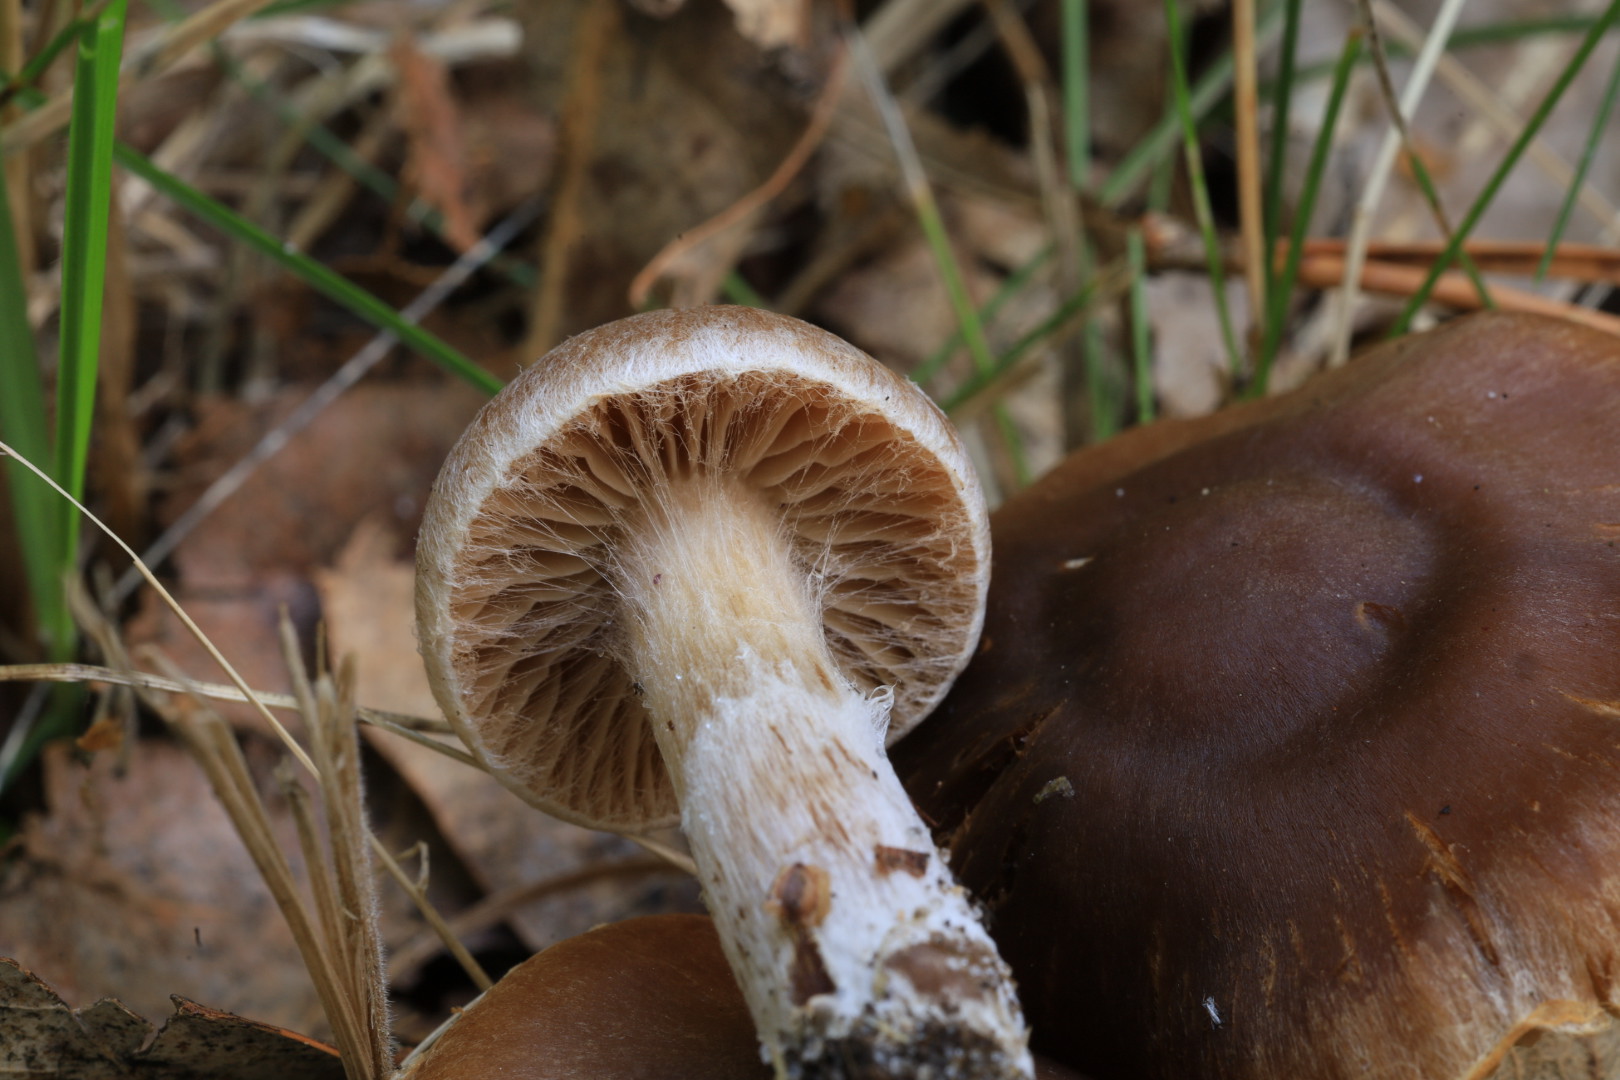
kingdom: Fungi
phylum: Basidiomycota
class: Agaricomycetes
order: Agaricales
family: Cortinariaceae
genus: Cortinarius
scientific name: Cortinarius epipurrus
